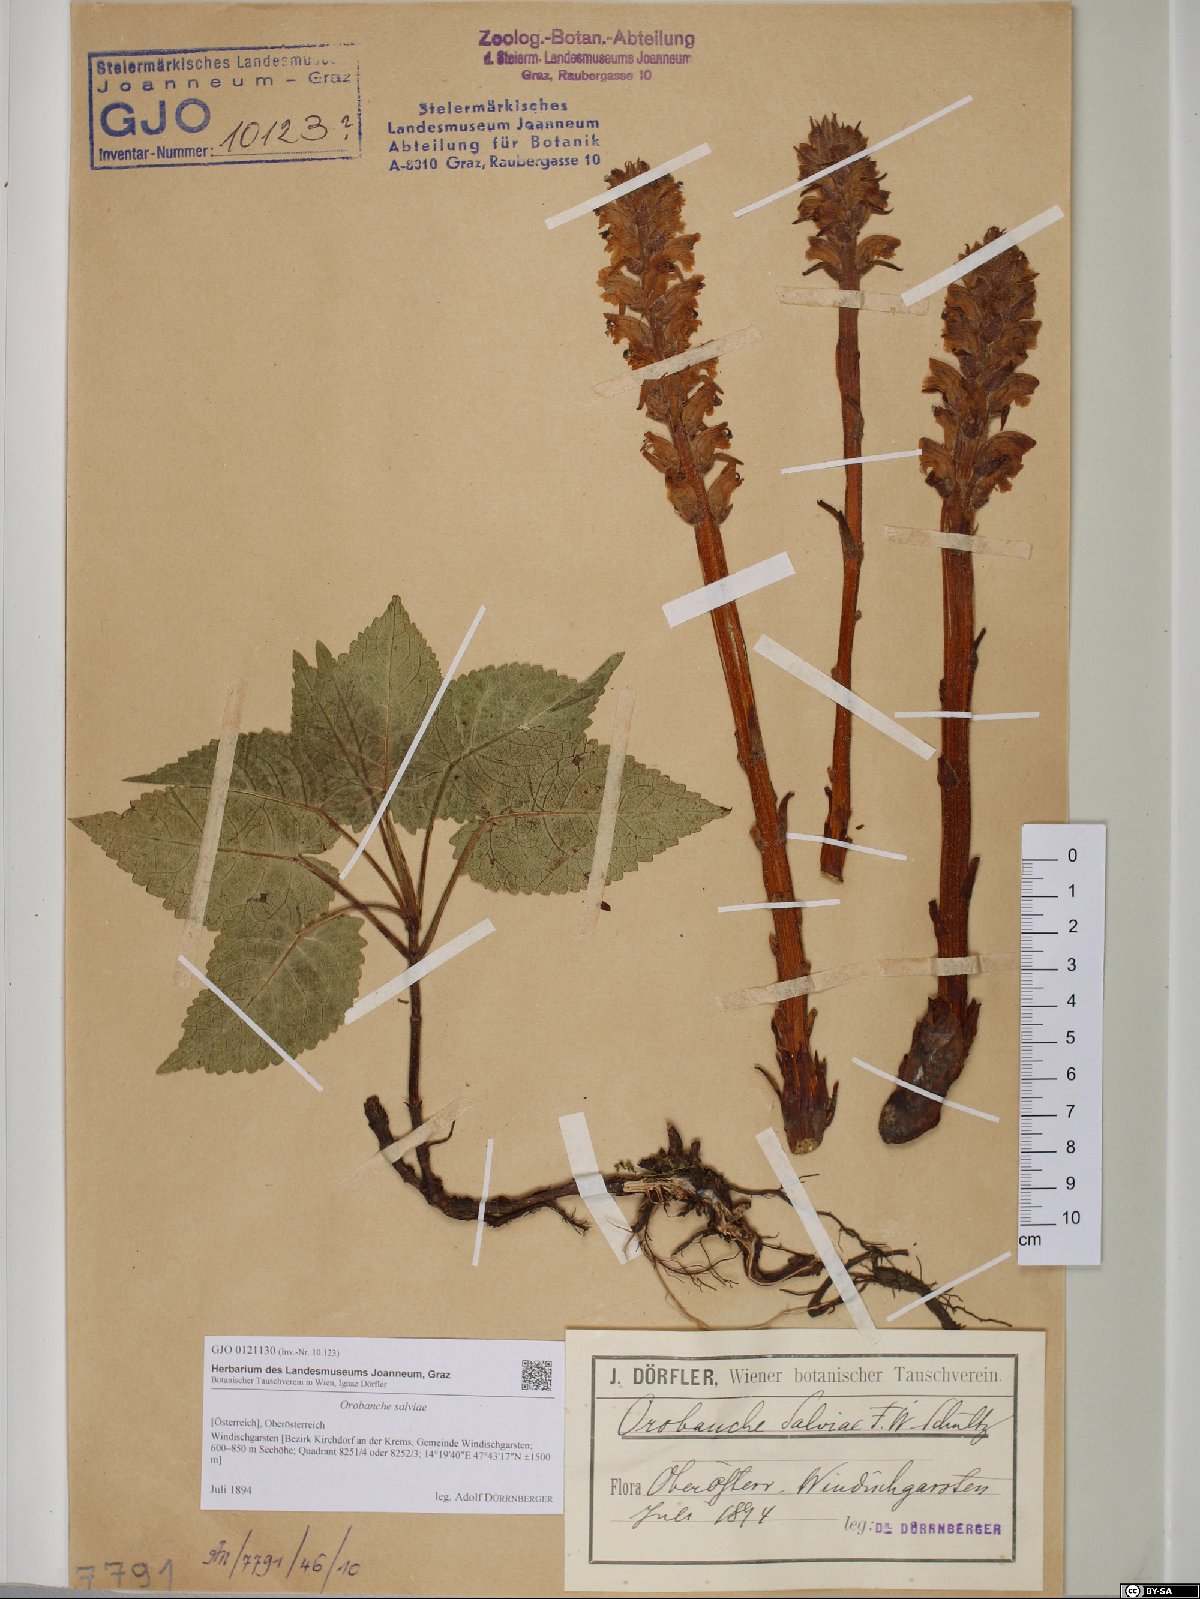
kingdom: Plantae
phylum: Tracheophyta
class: Magnoliopsida
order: Lamiales
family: Orobanchaceae
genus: Orobanche
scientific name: Orobanche salviae
